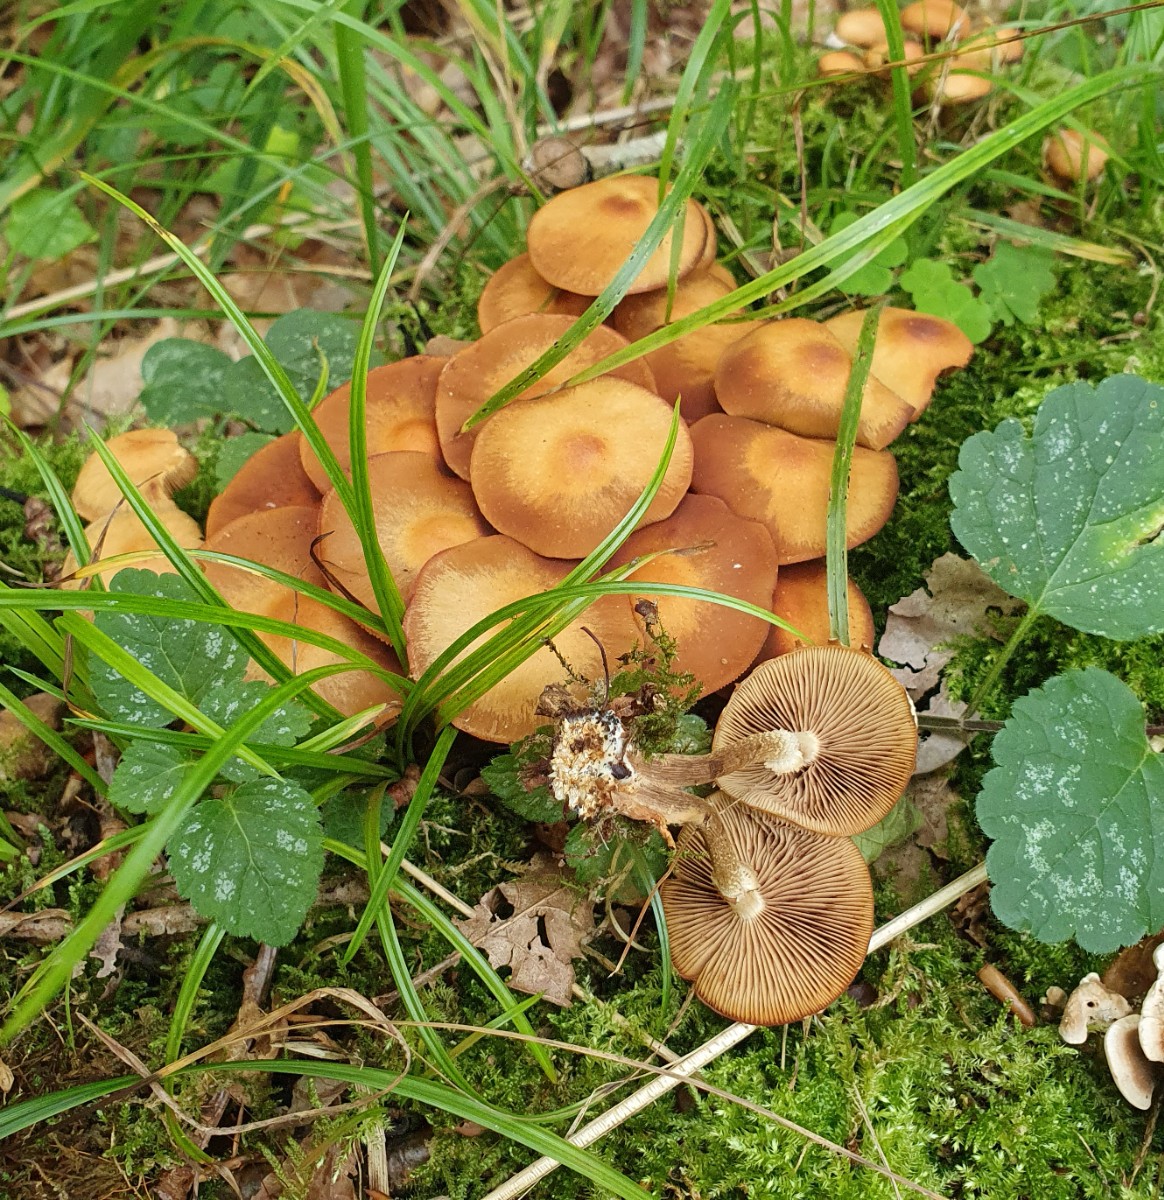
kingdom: Fungi
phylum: Basidiomycota
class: Agaricomycetes
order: Agaricales
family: Strophariaceae
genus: Kuehneromyces
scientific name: Kuehneromyces mutabilis
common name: foranderlig skælhat
